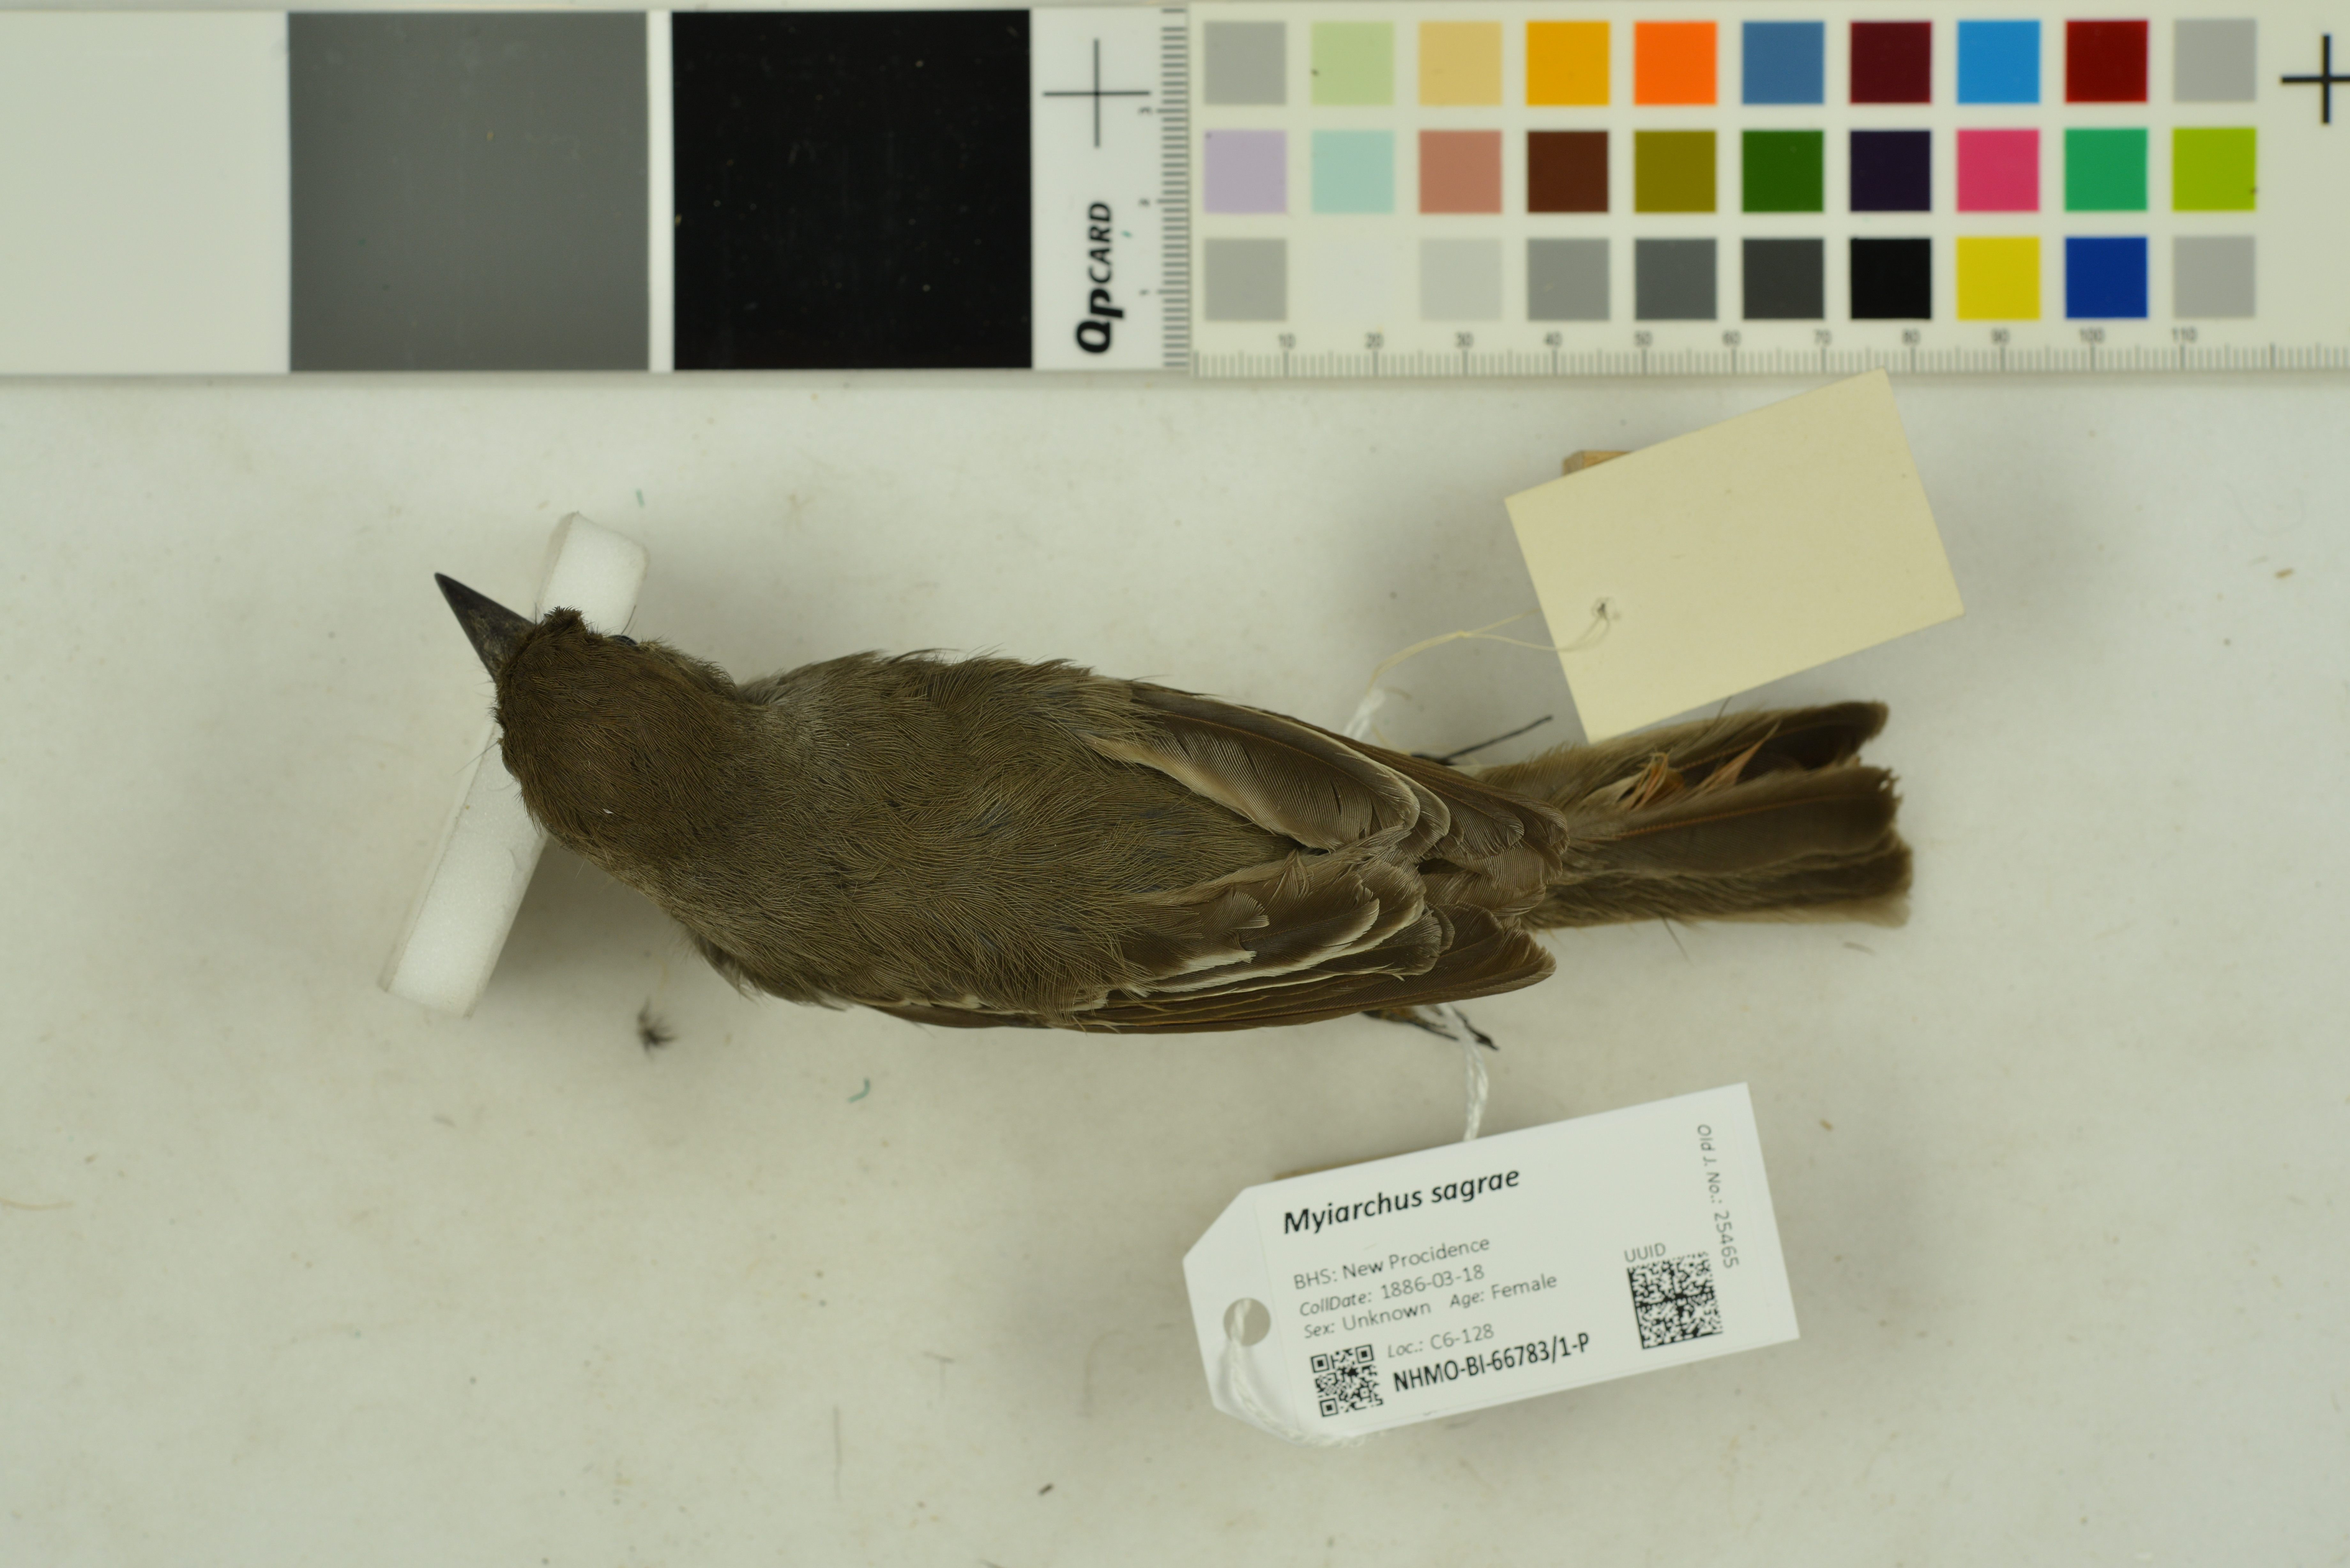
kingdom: Animalia
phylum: Chordata
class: Aves
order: Passeriformes
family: Tyrannidae
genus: Myiarchus
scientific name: Myiarchus sagrae
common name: La sagra's flycatcher
